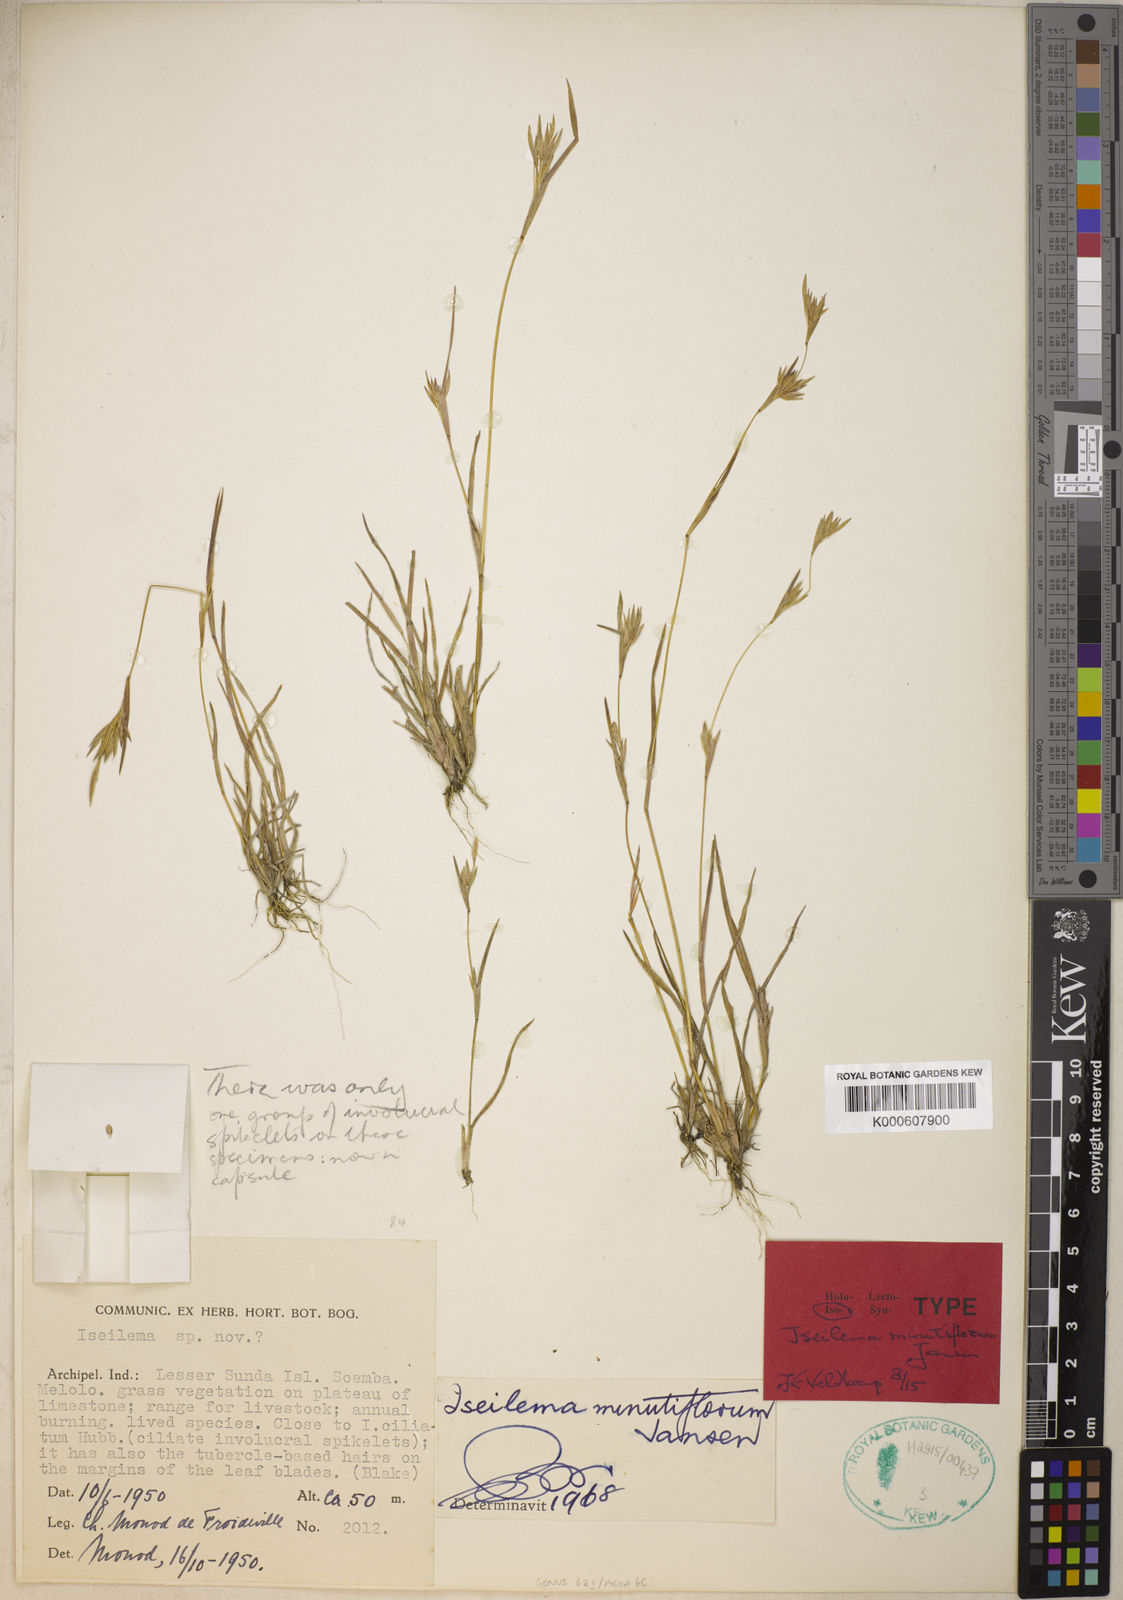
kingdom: Plantae
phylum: Tracheophyta
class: Liliopsida
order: Poales
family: Poaceae
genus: Iseilema
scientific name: Iseilema minutiflorum
